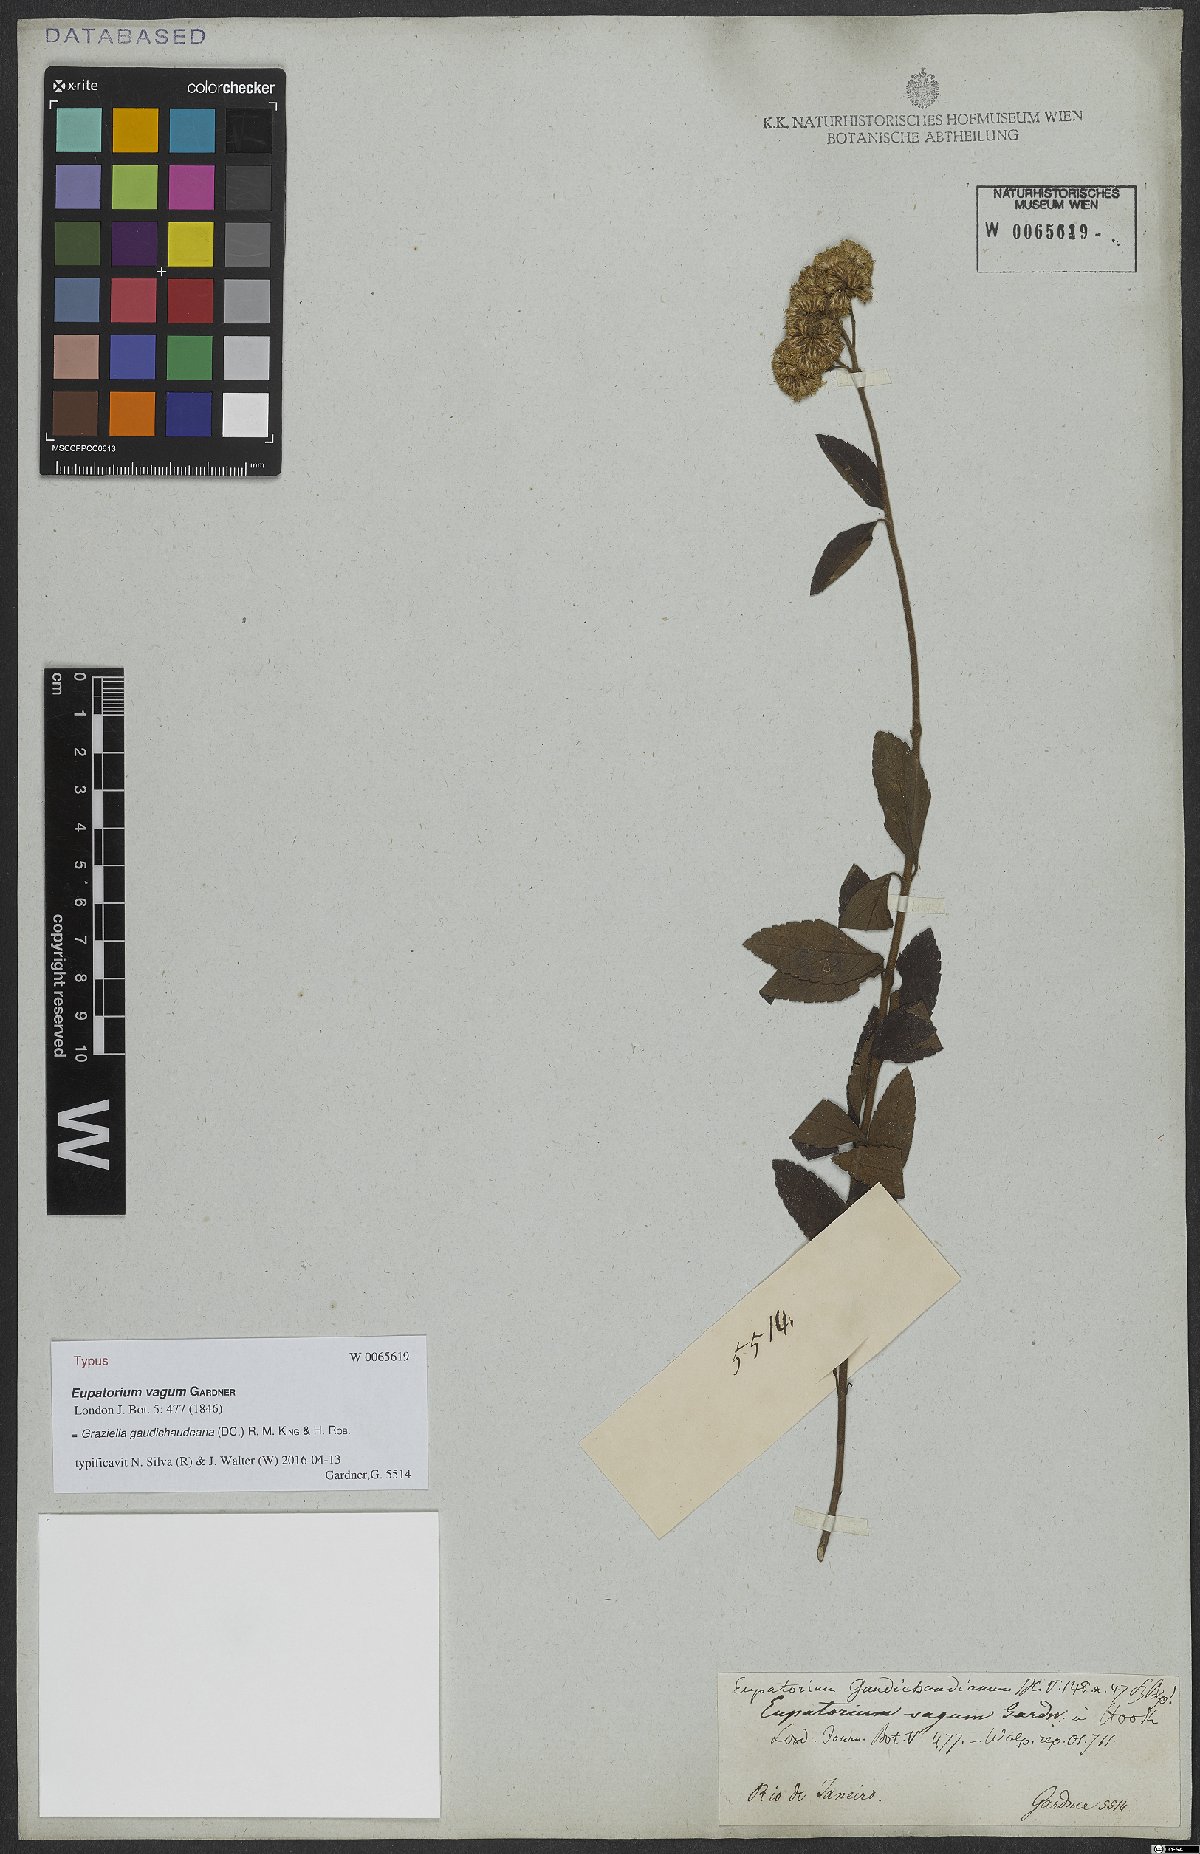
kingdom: Plantae
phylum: Tracheophyta
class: Magnoliopsida
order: Asterales
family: Asteraceae
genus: Grazielia
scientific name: Grazielia gaudichaudeana
